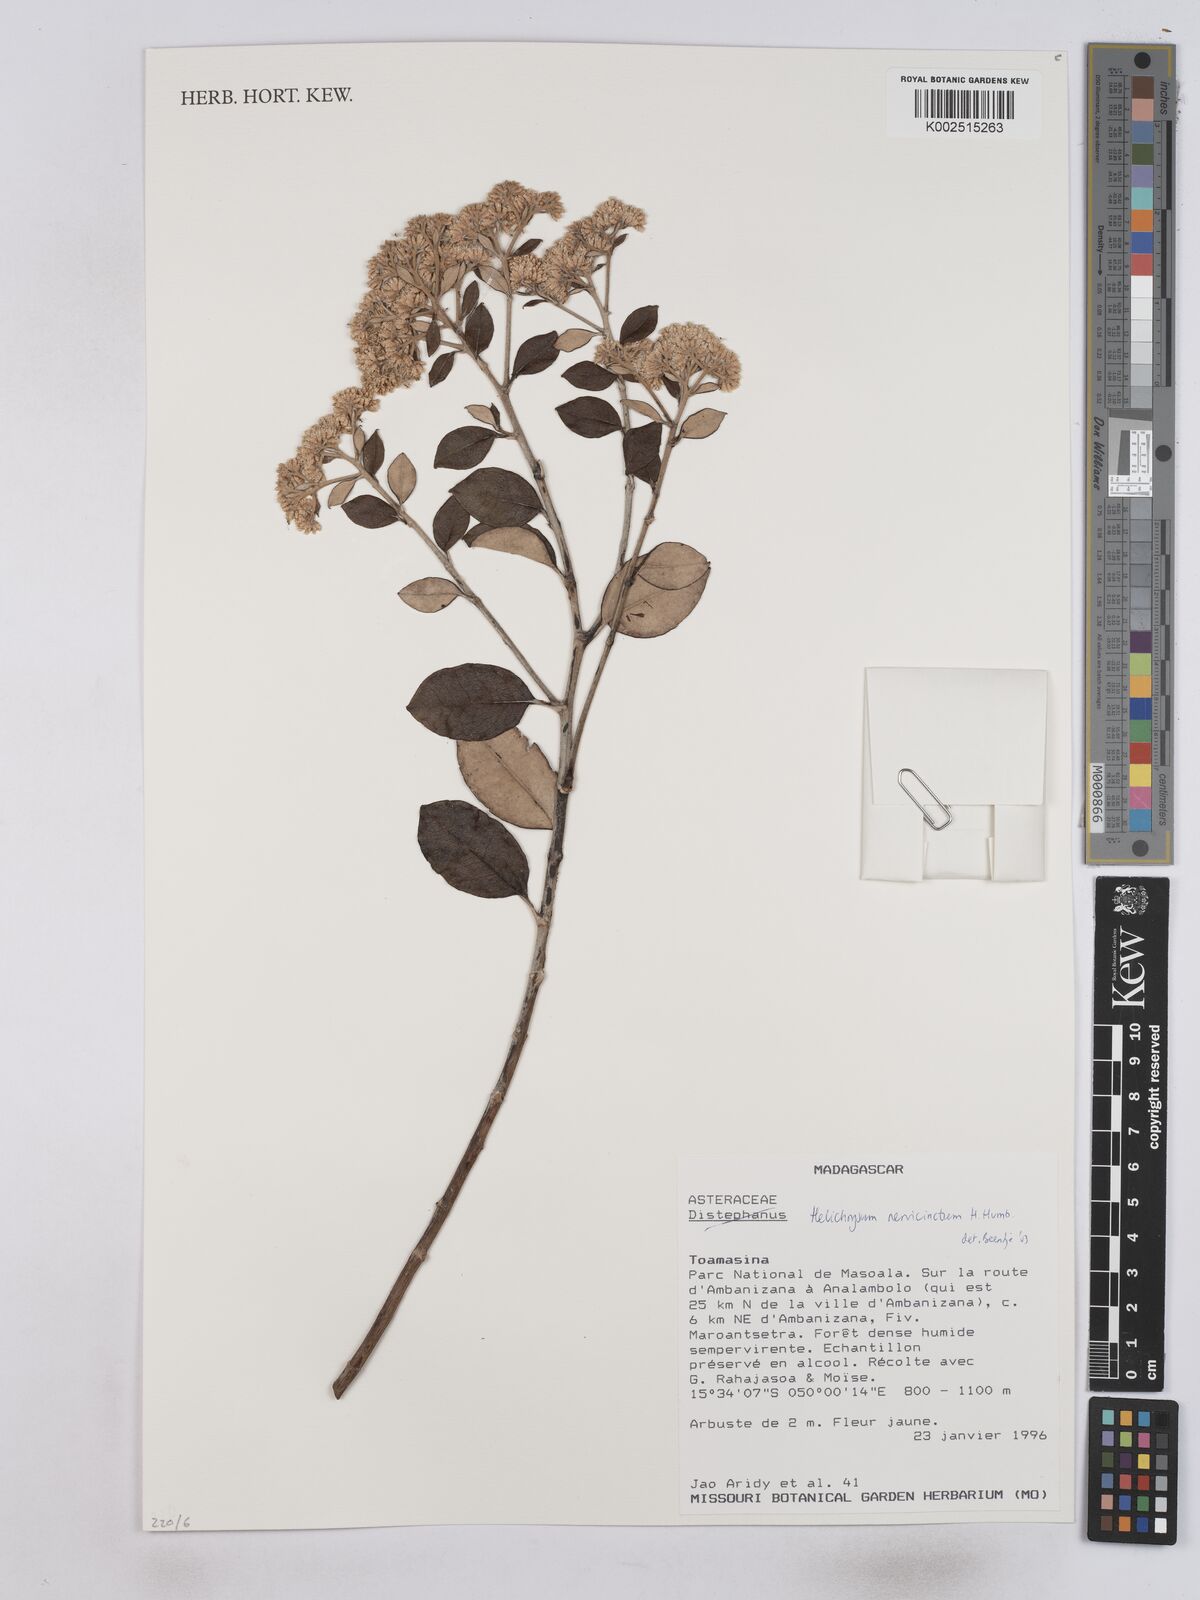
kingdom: Plantae
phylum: Tracheophyta
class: Magnoliopsida
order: Asterales
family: Asteraceae
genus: Helichrysum
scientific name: Helichrysum nervicinctum
